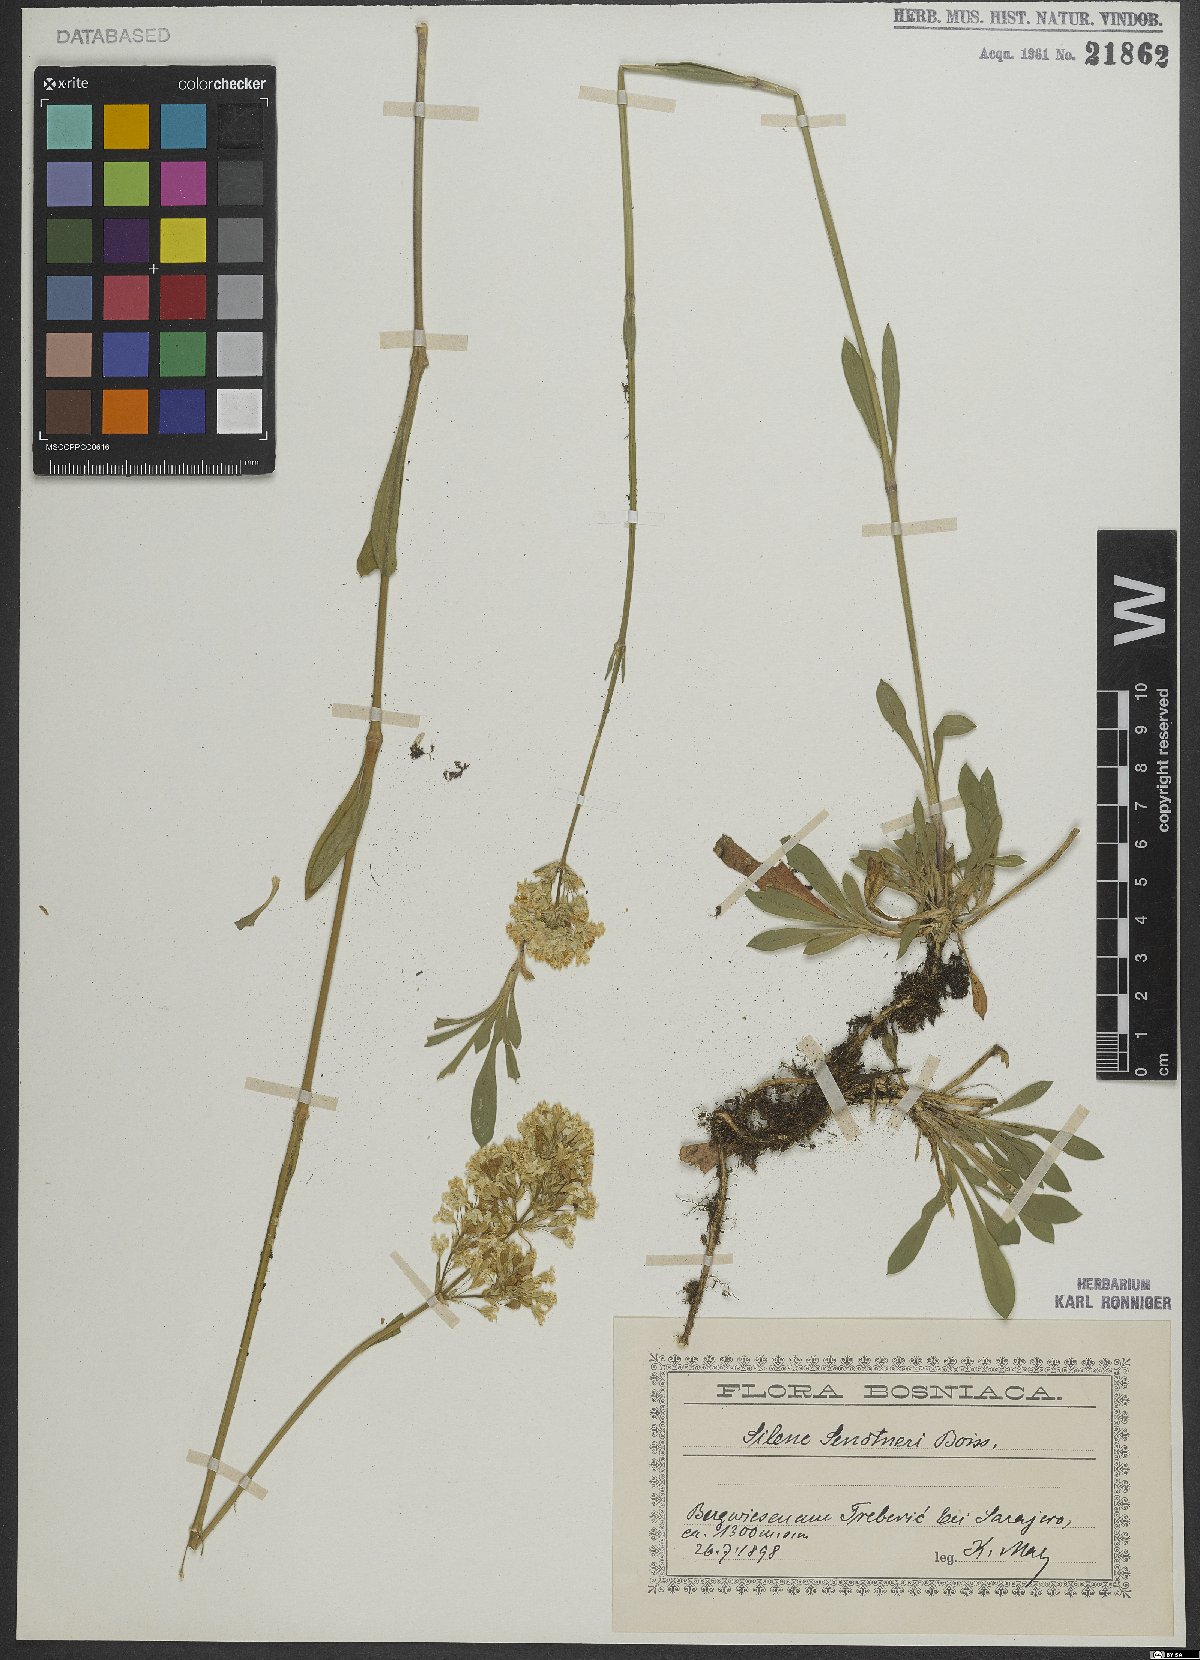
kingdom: Plantae
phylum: Tracheophyta
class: Magnoliopsida
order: Caryophyllales
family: Caryophyllaceae
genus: Silene
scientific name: Silene sendtneri
